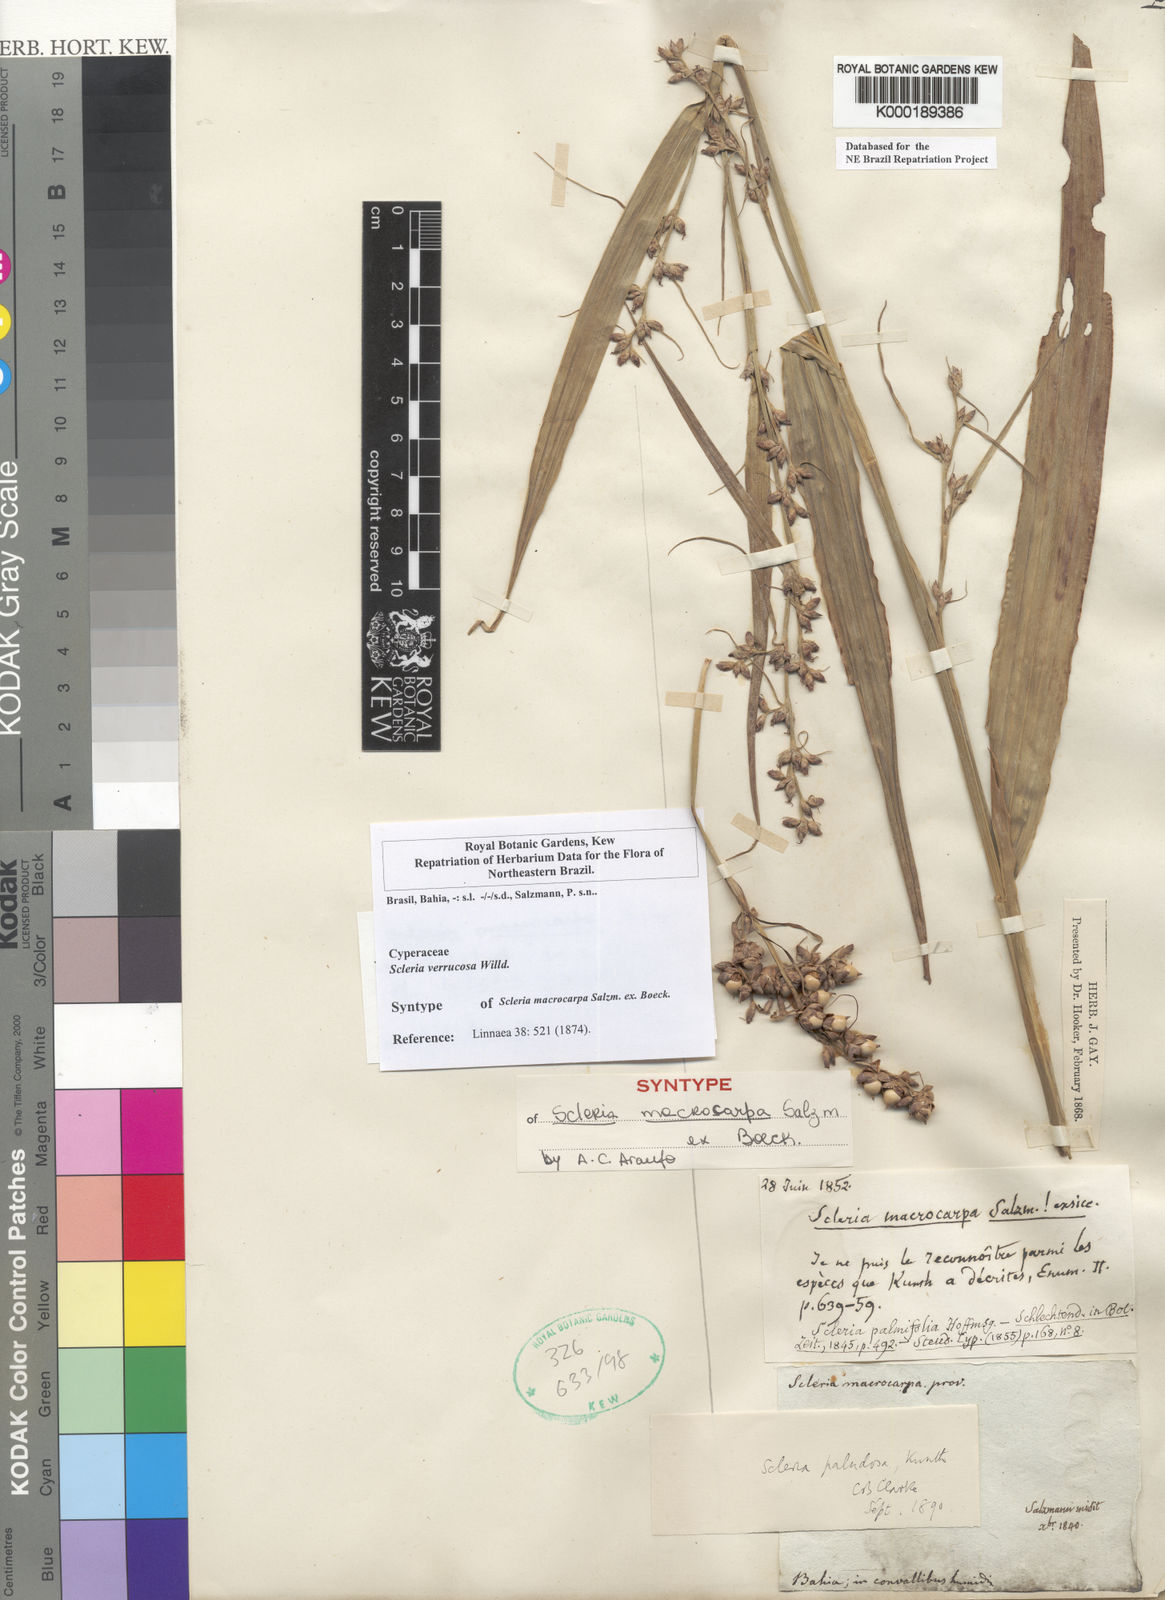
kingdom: Plantae
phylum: Tracheophyta
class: Liliopsida
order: Poales
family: Cyperaceae
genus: Scleria
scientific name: Scleria macrophylla
